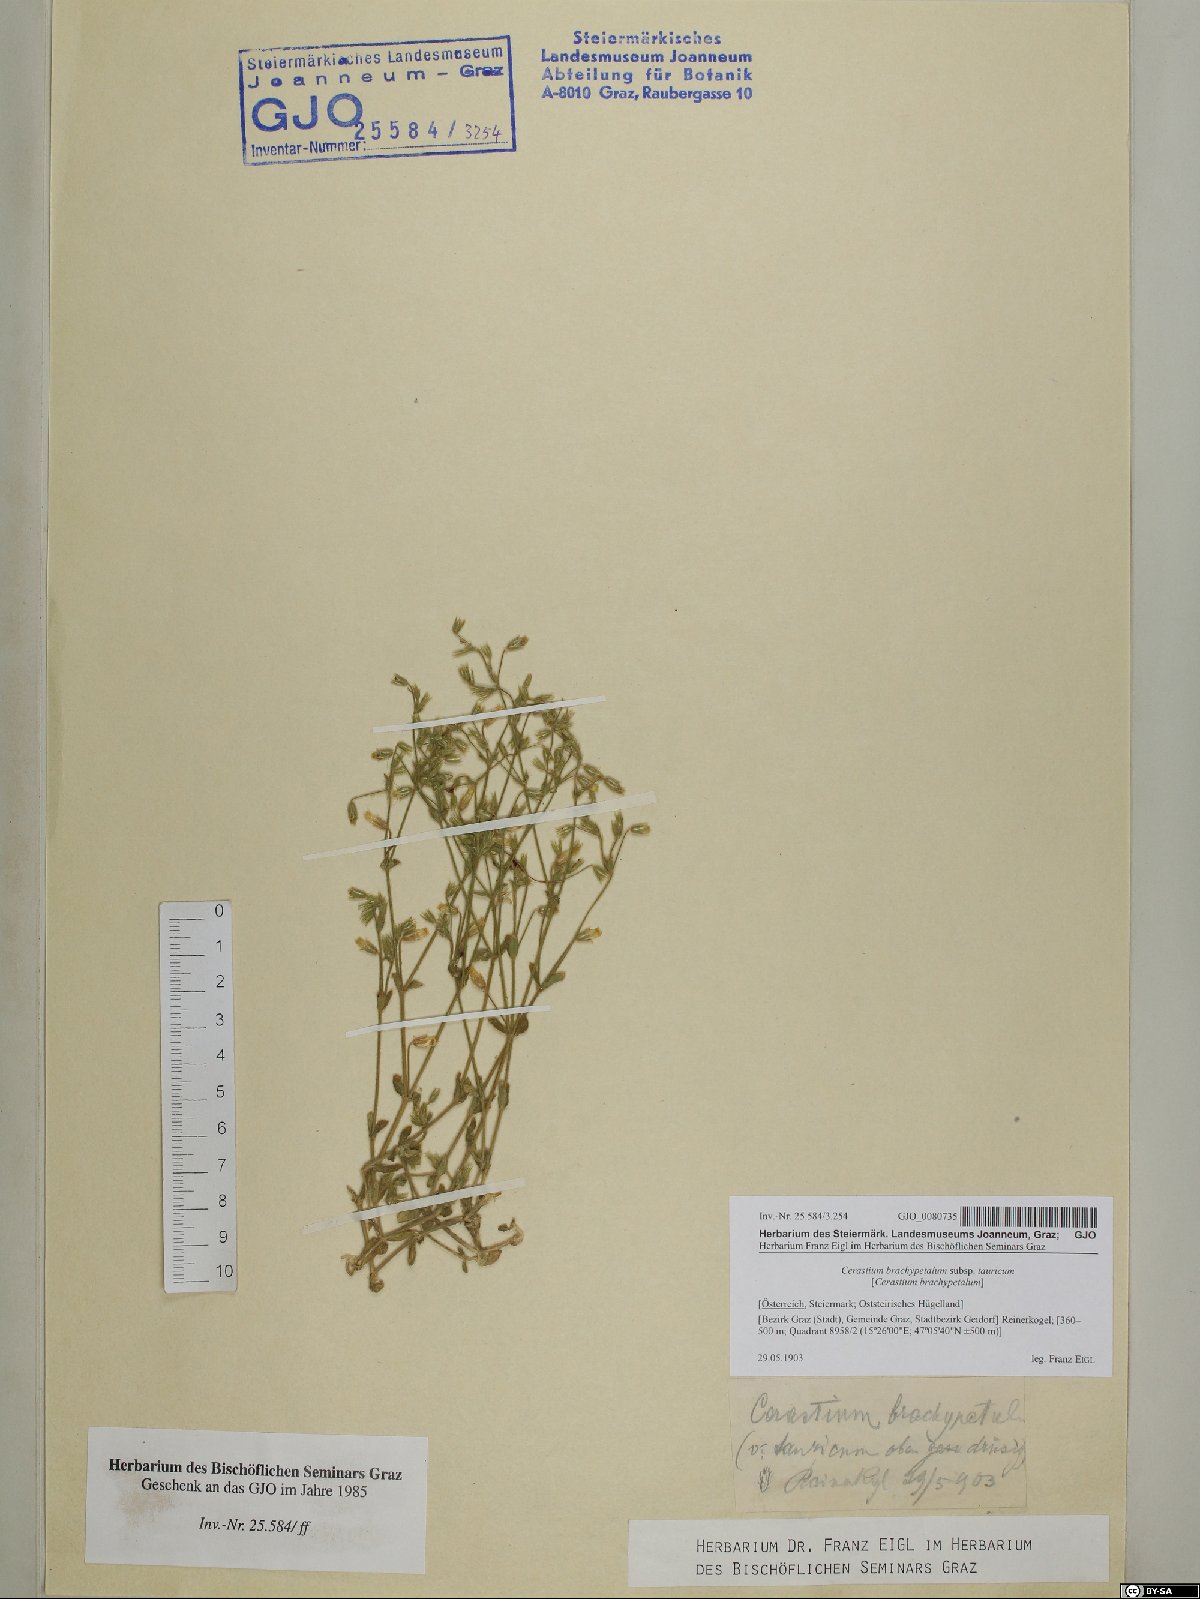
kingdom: Plantae
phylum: Tracheophyta
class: Magnoliopsida
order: Caryophyllales
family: Caryophyllaceae
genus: Cerastium
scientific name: Cerastium brachypetalum
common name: Grey mouse-ear
